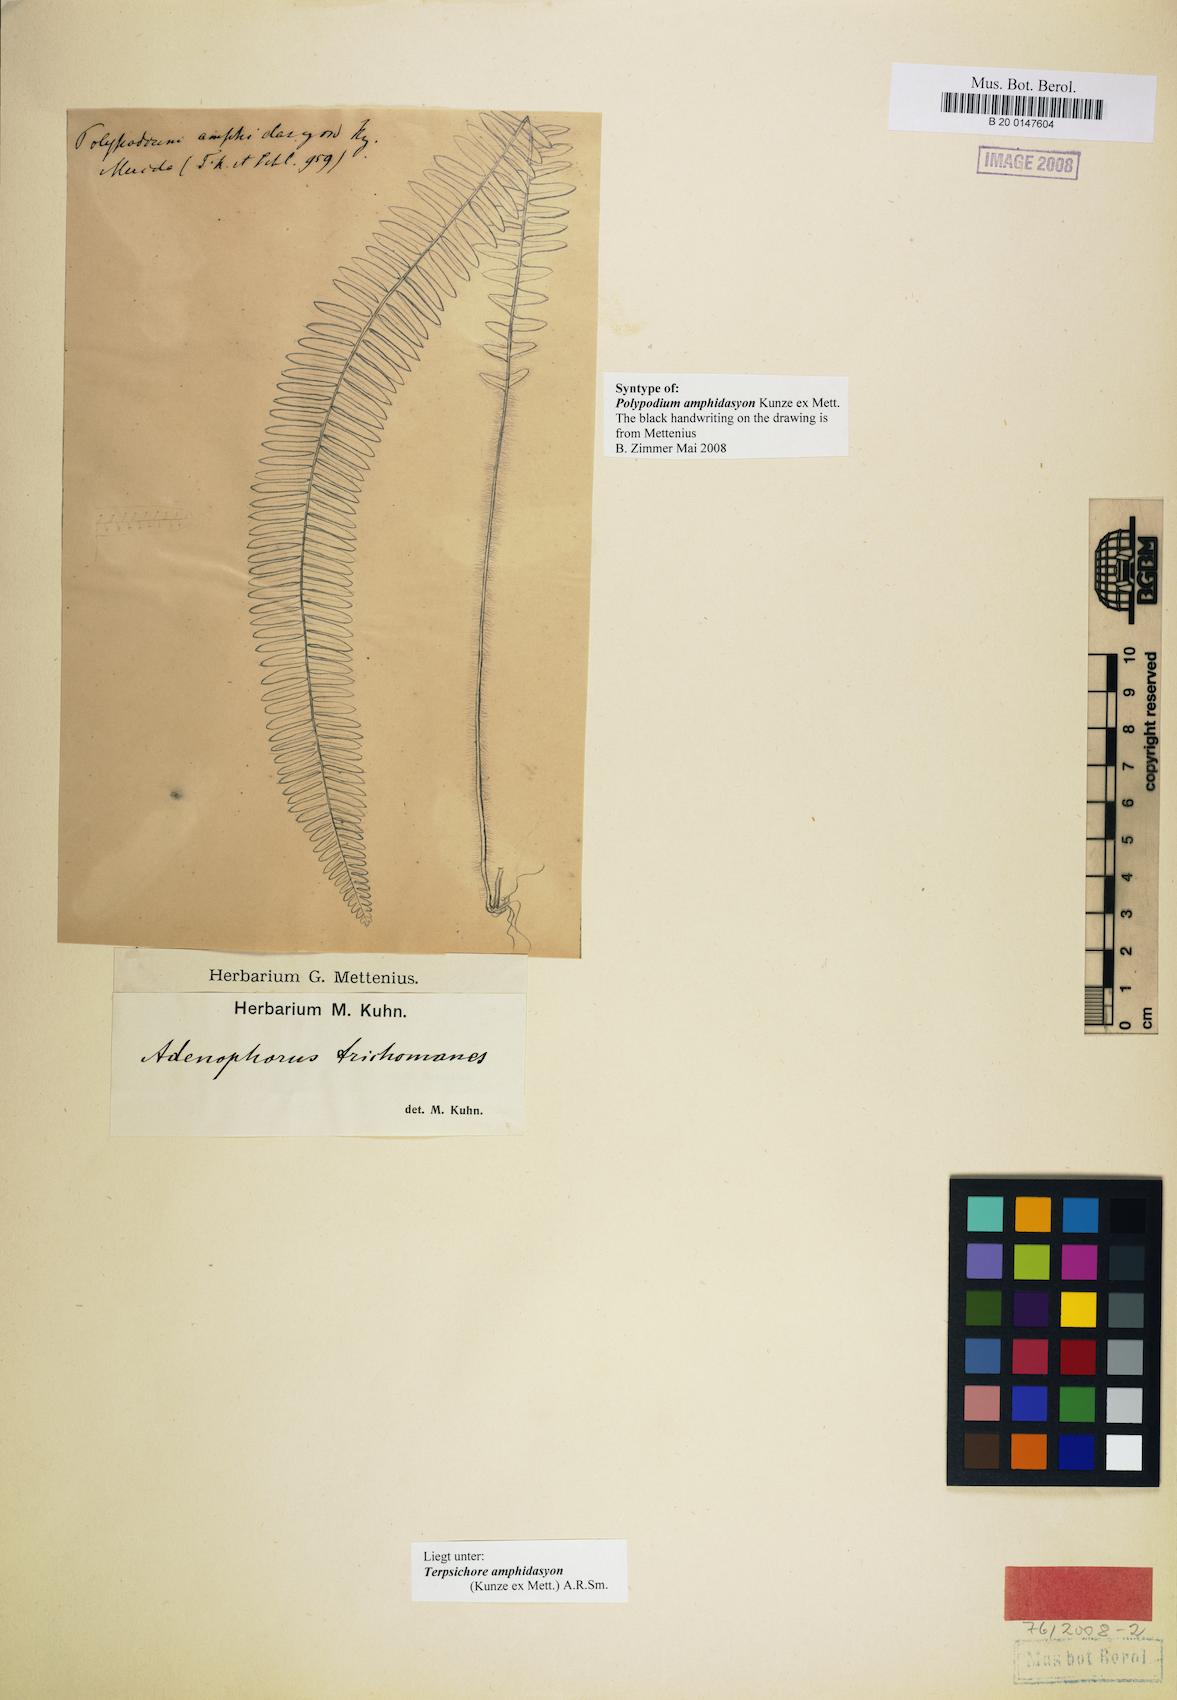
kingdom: Plantae
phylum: Tracheophyta
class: Polypodiopsida
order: Polypodiales
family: Polypodiaceae
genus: Mycopteris
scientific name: Mycopteris amphidasyon
